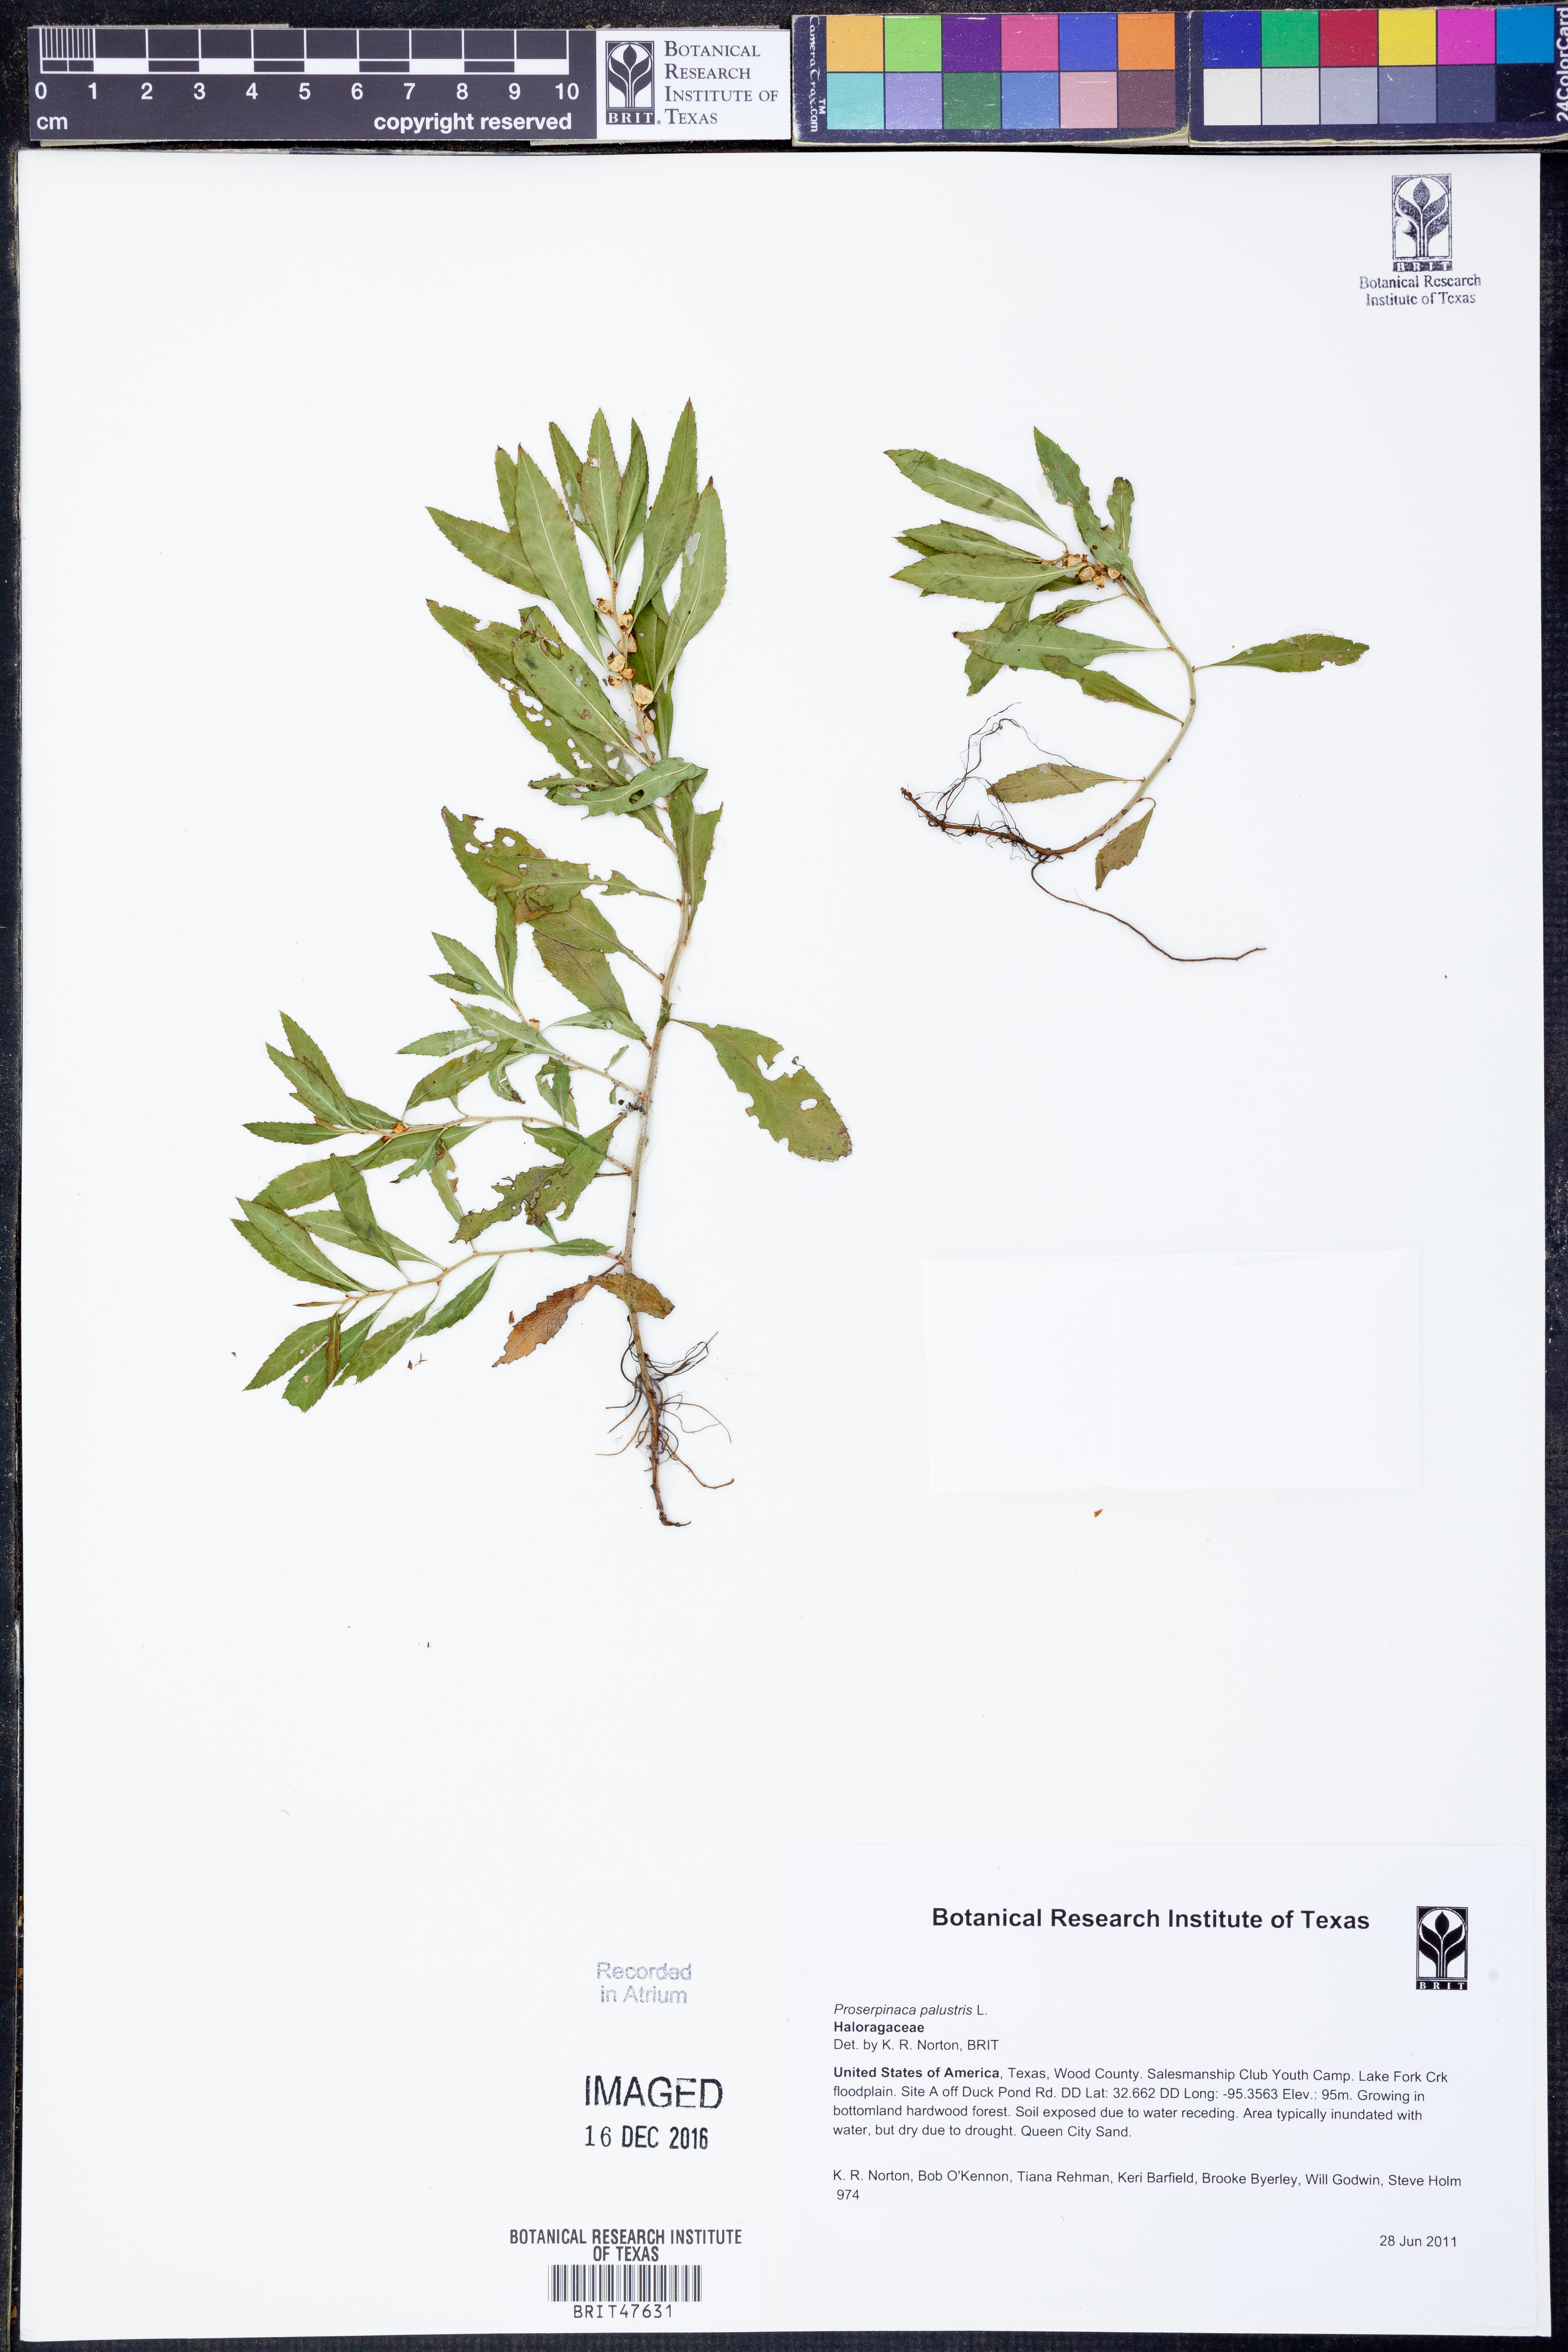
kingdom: Plantae
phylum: Tracheophyta
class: Magnoliopsida
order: Saxifragales
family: Haloragaceae
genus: Proserpinaca
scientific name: Proserpinaca palustris
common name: Marsh mermaidweed
